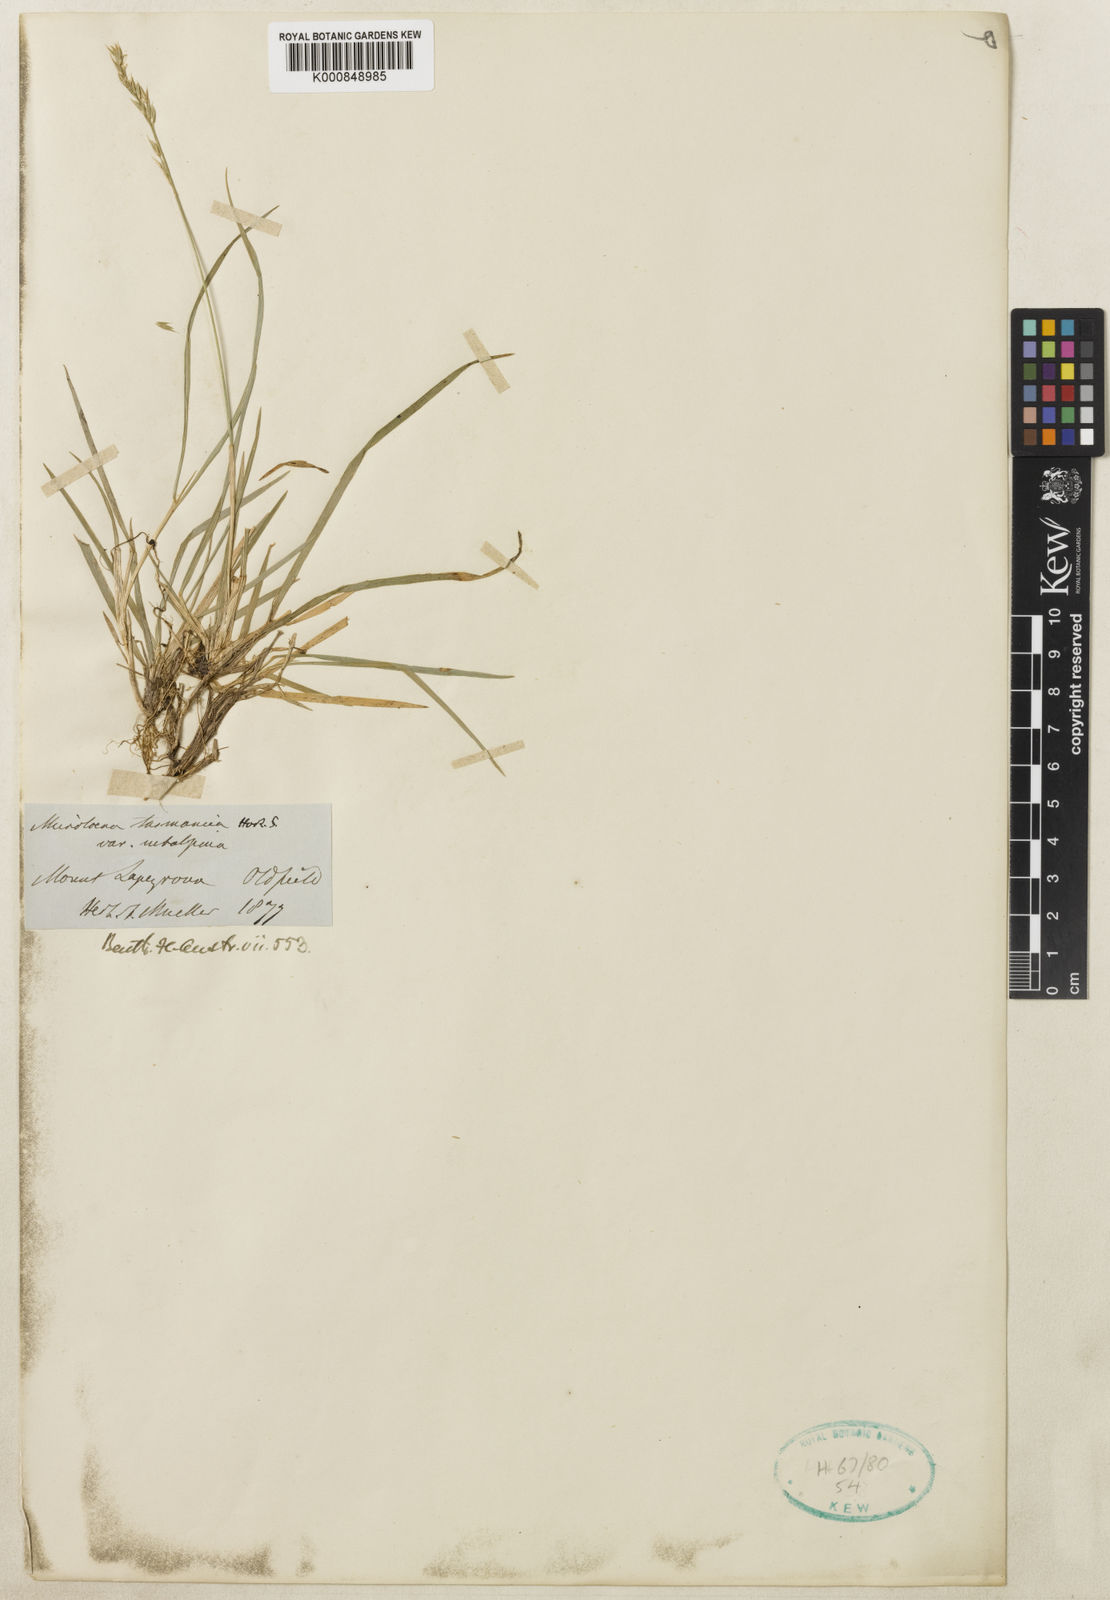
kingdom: Plantae
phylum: Tracheophyta
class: Liliopsida
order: Poales
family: Poaceae
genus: Ehrharta
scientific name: Ehrharta
